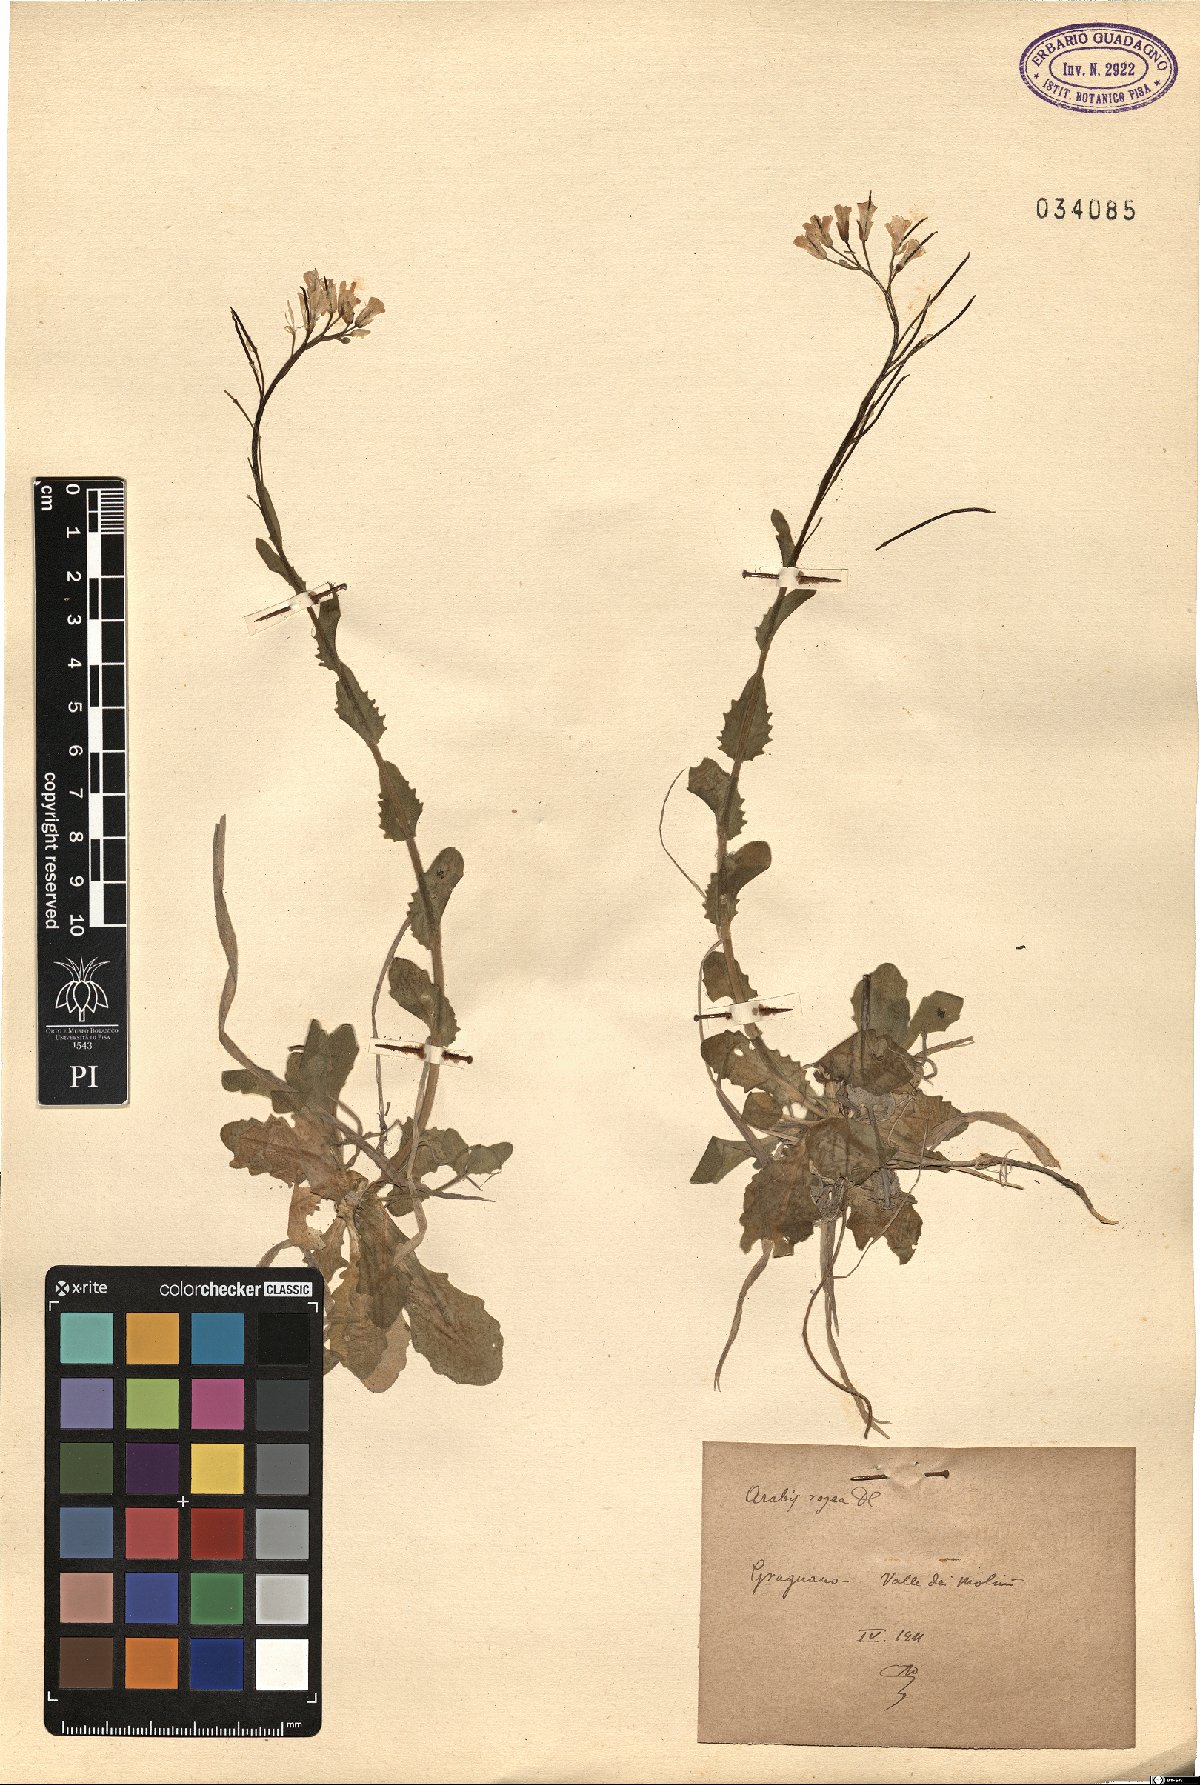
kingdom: Plantae
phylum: Tracheophyta
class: Magnoliopsida
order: Brassicales
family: Brassicaceae
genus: Arabis
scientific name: Arabis collina
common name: Rosy cress
